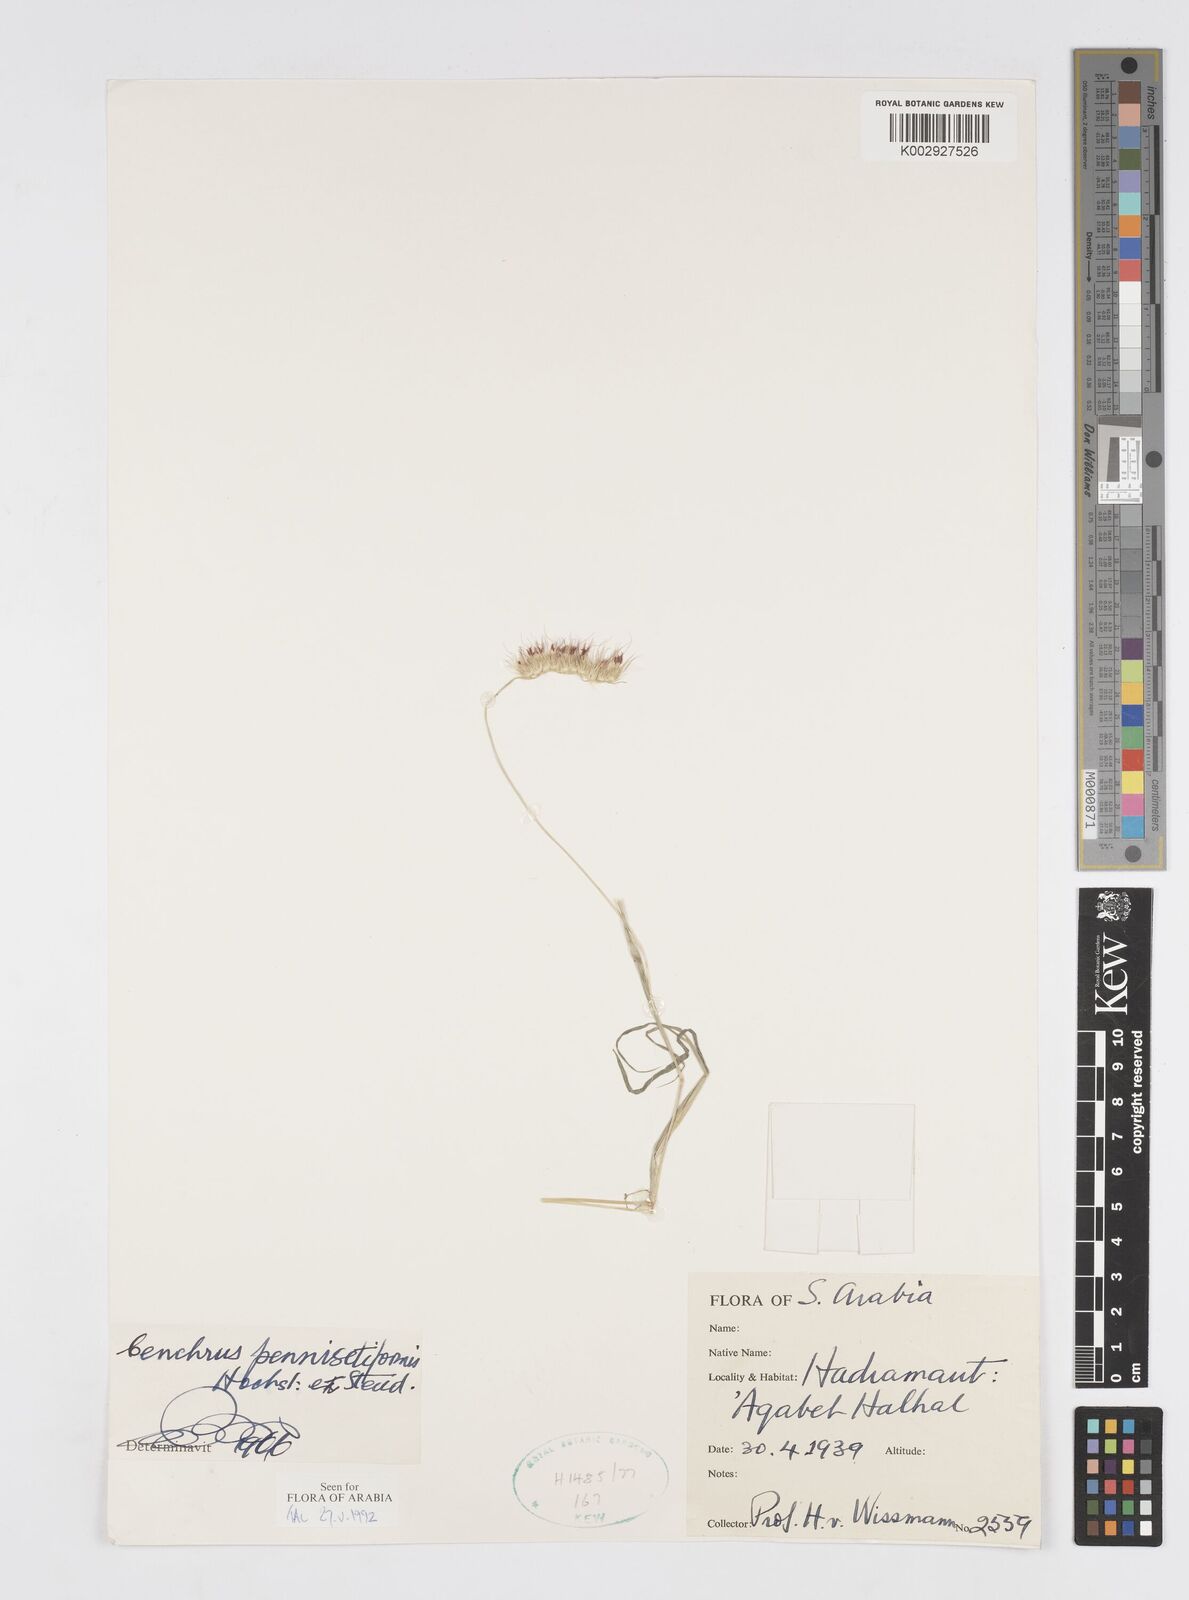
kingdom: Plantae
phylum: Tracheophyta
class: Liliopsida
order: Poales
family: Poaceae
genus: Cenchrus
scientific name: Cenchrus pennisetiformis
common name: Cloncurry
